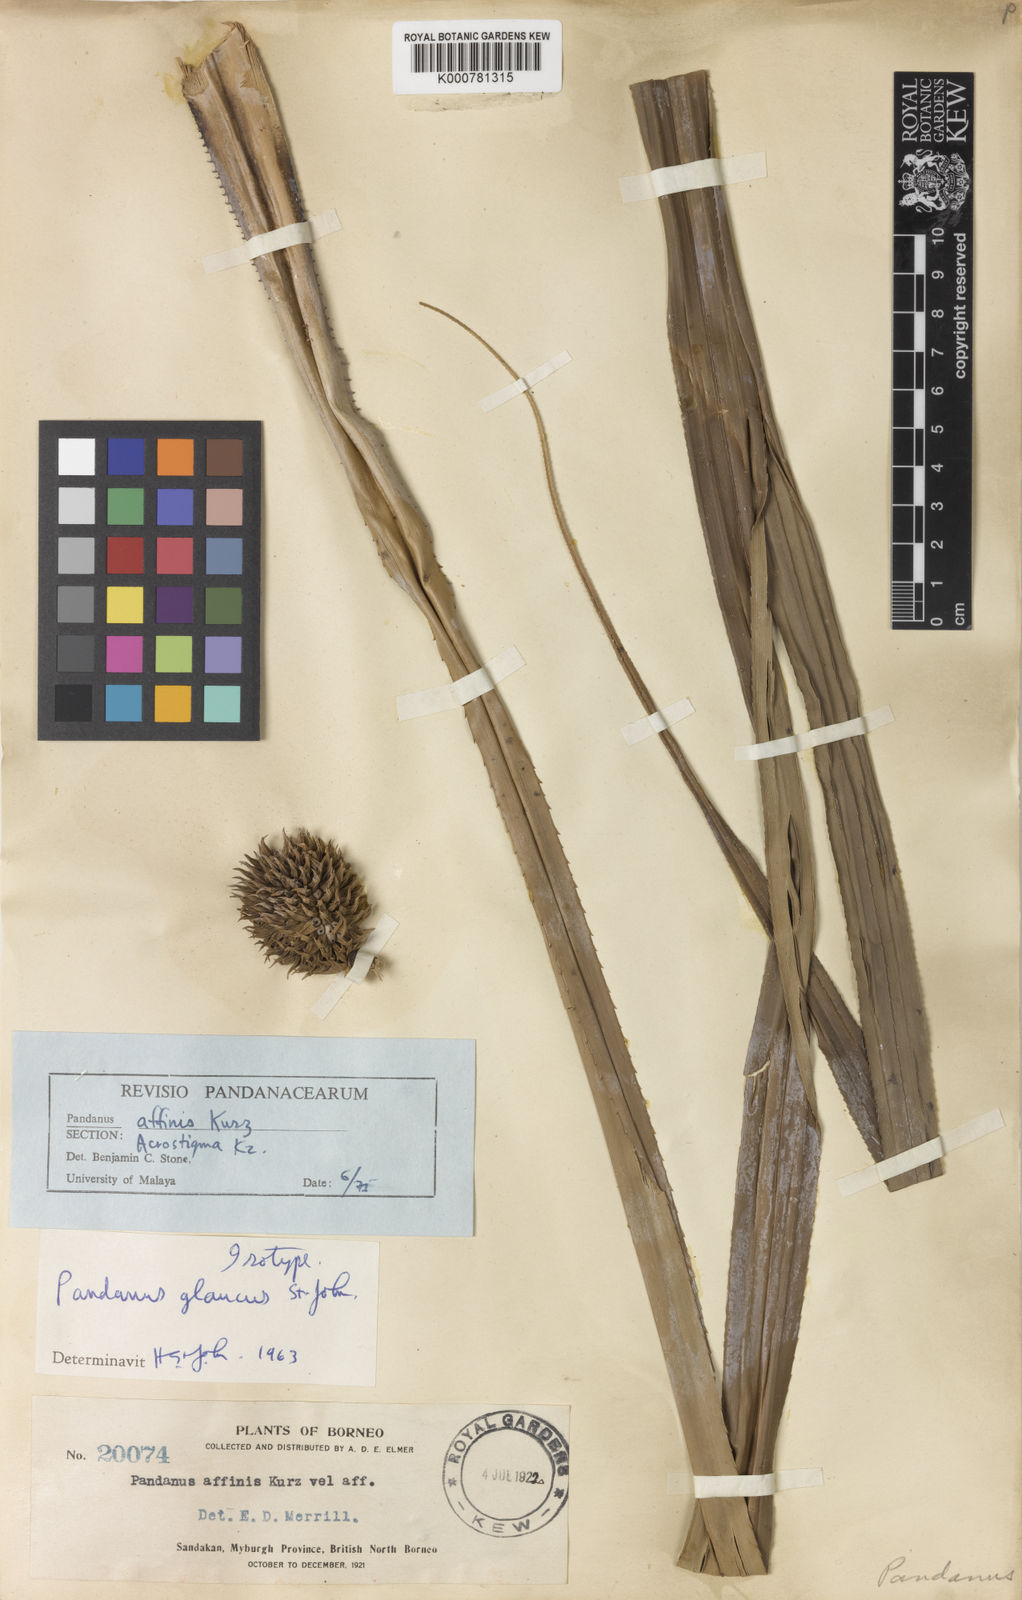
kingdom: Plantae
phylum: Tracheophyta
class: Liliopsida
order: Pandanales
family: Pandanaceae
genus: Pandanus
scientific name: Pandanus
